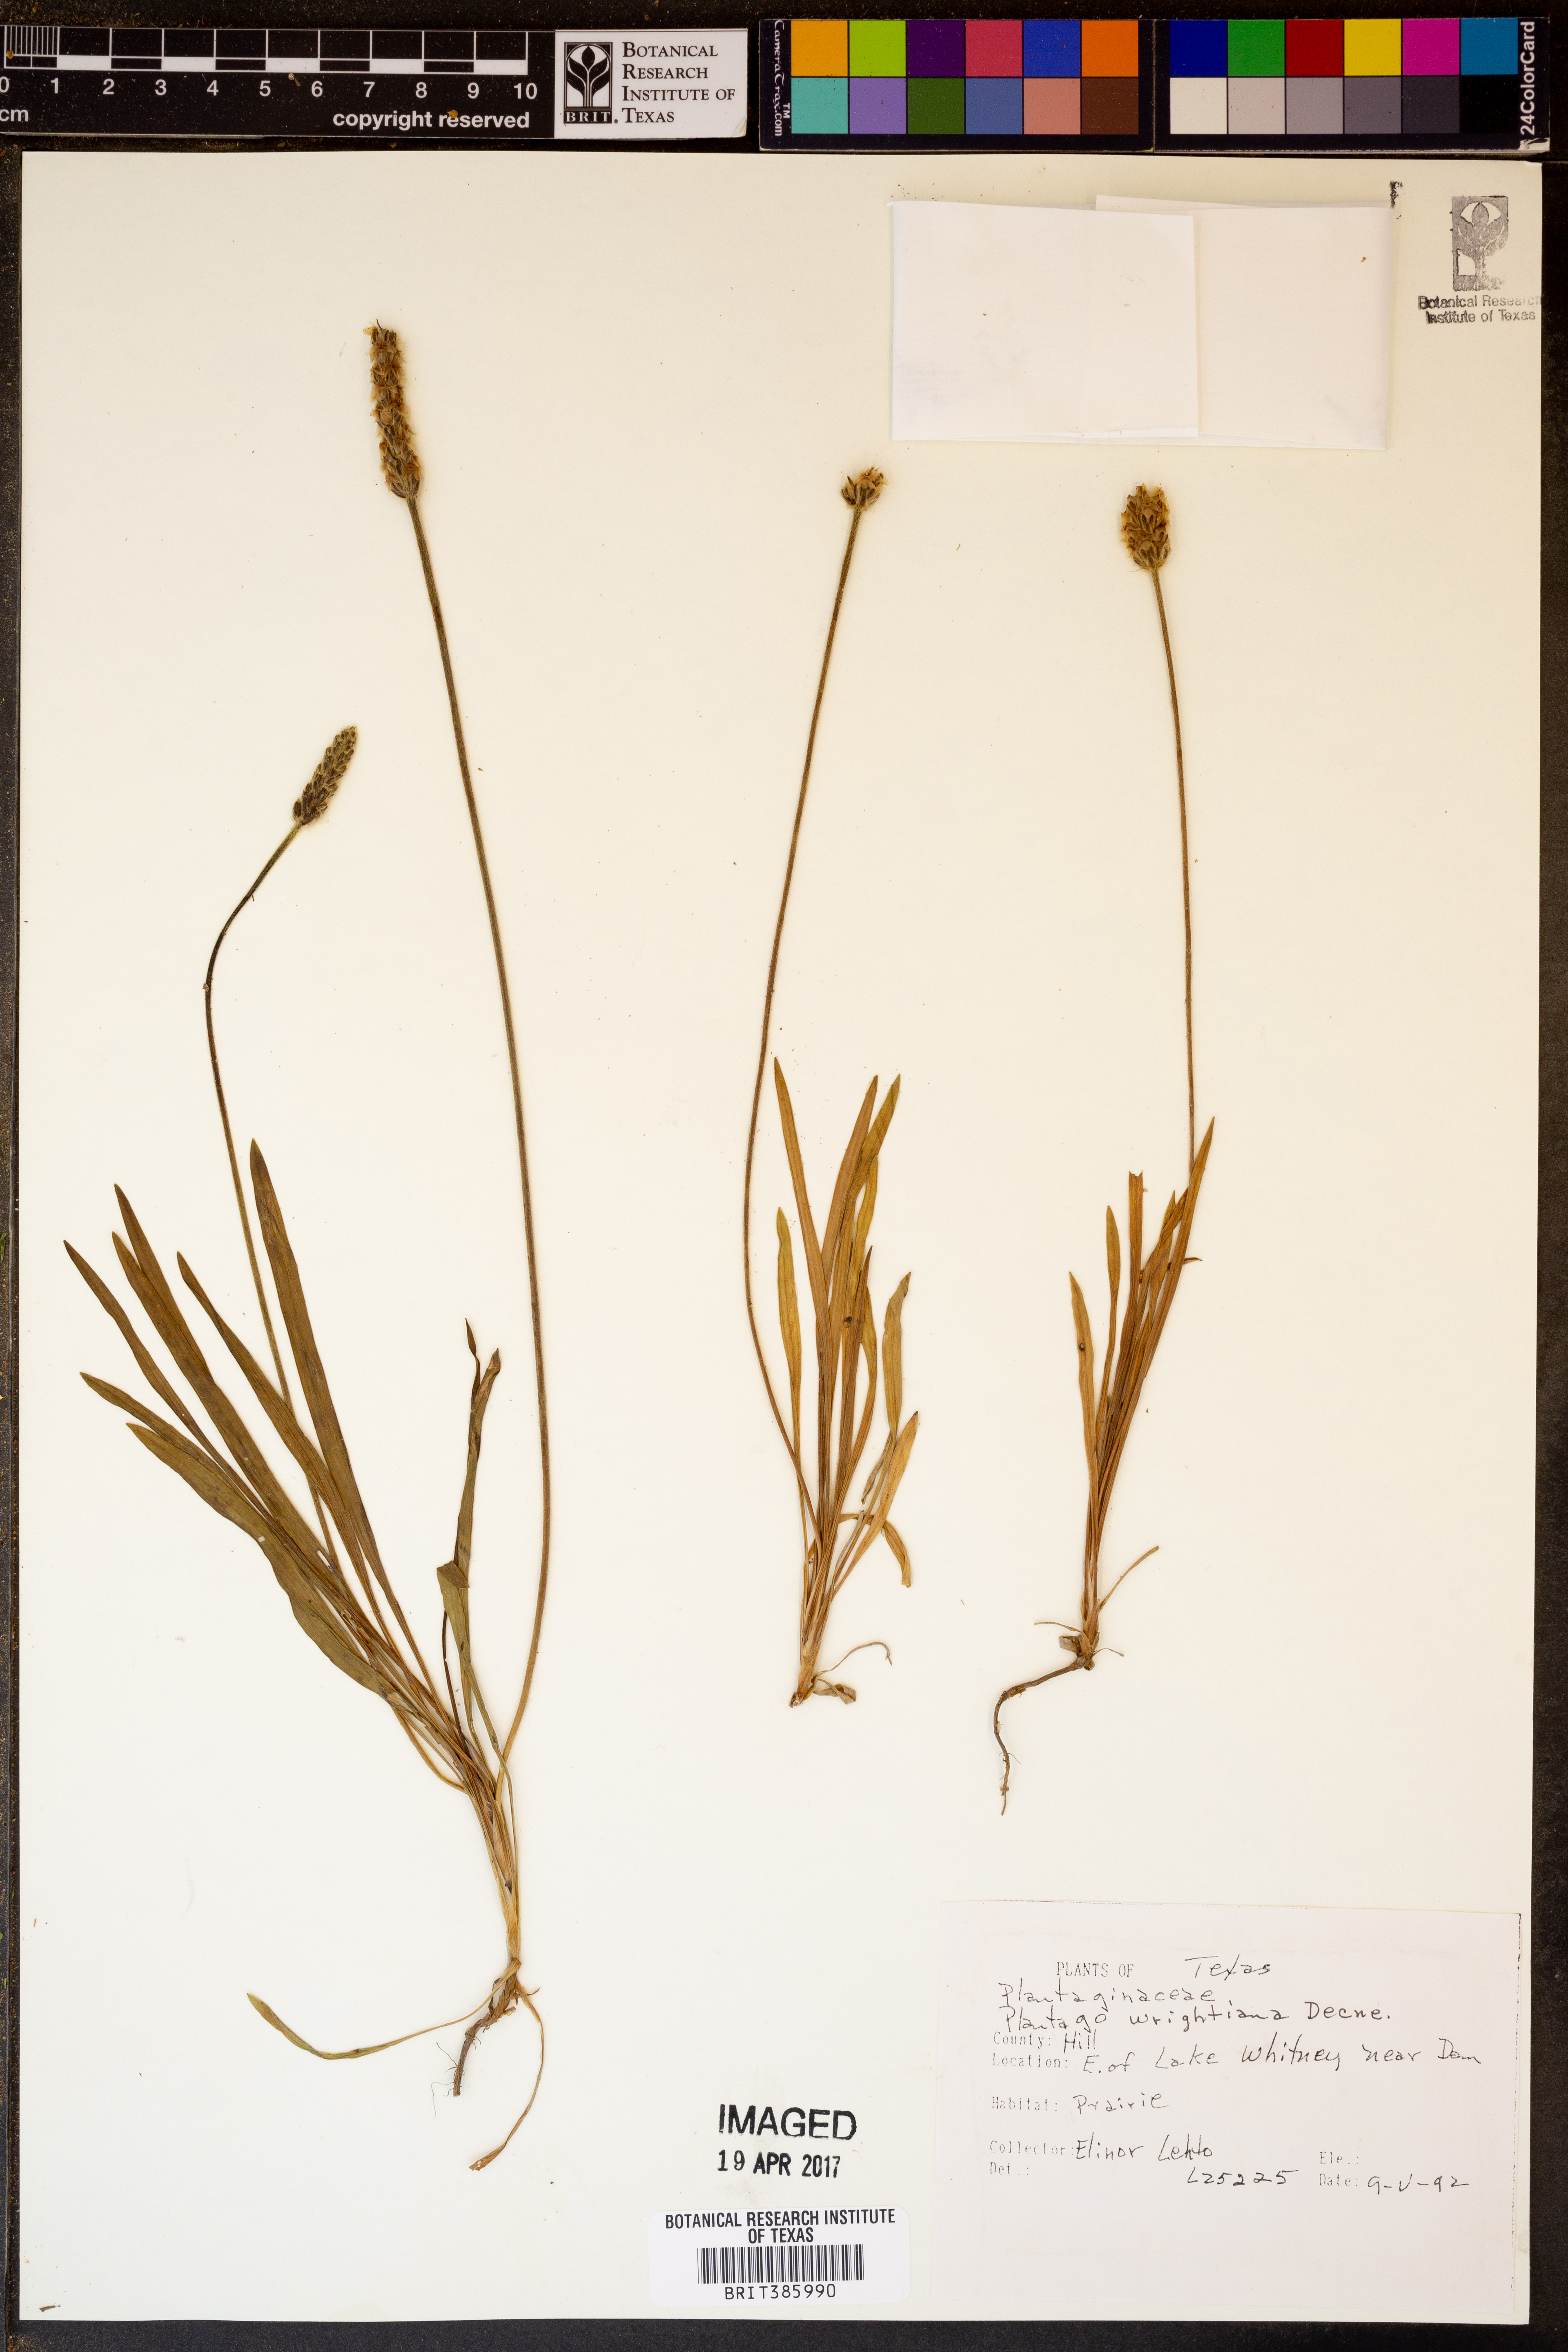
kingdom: Plantae
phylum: Tracheophyta
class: Magnoliopsida
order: Lamiales
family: Plantaginaceae
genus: Plantago
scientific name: Plantago wrightiana
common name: Wright's plantain
